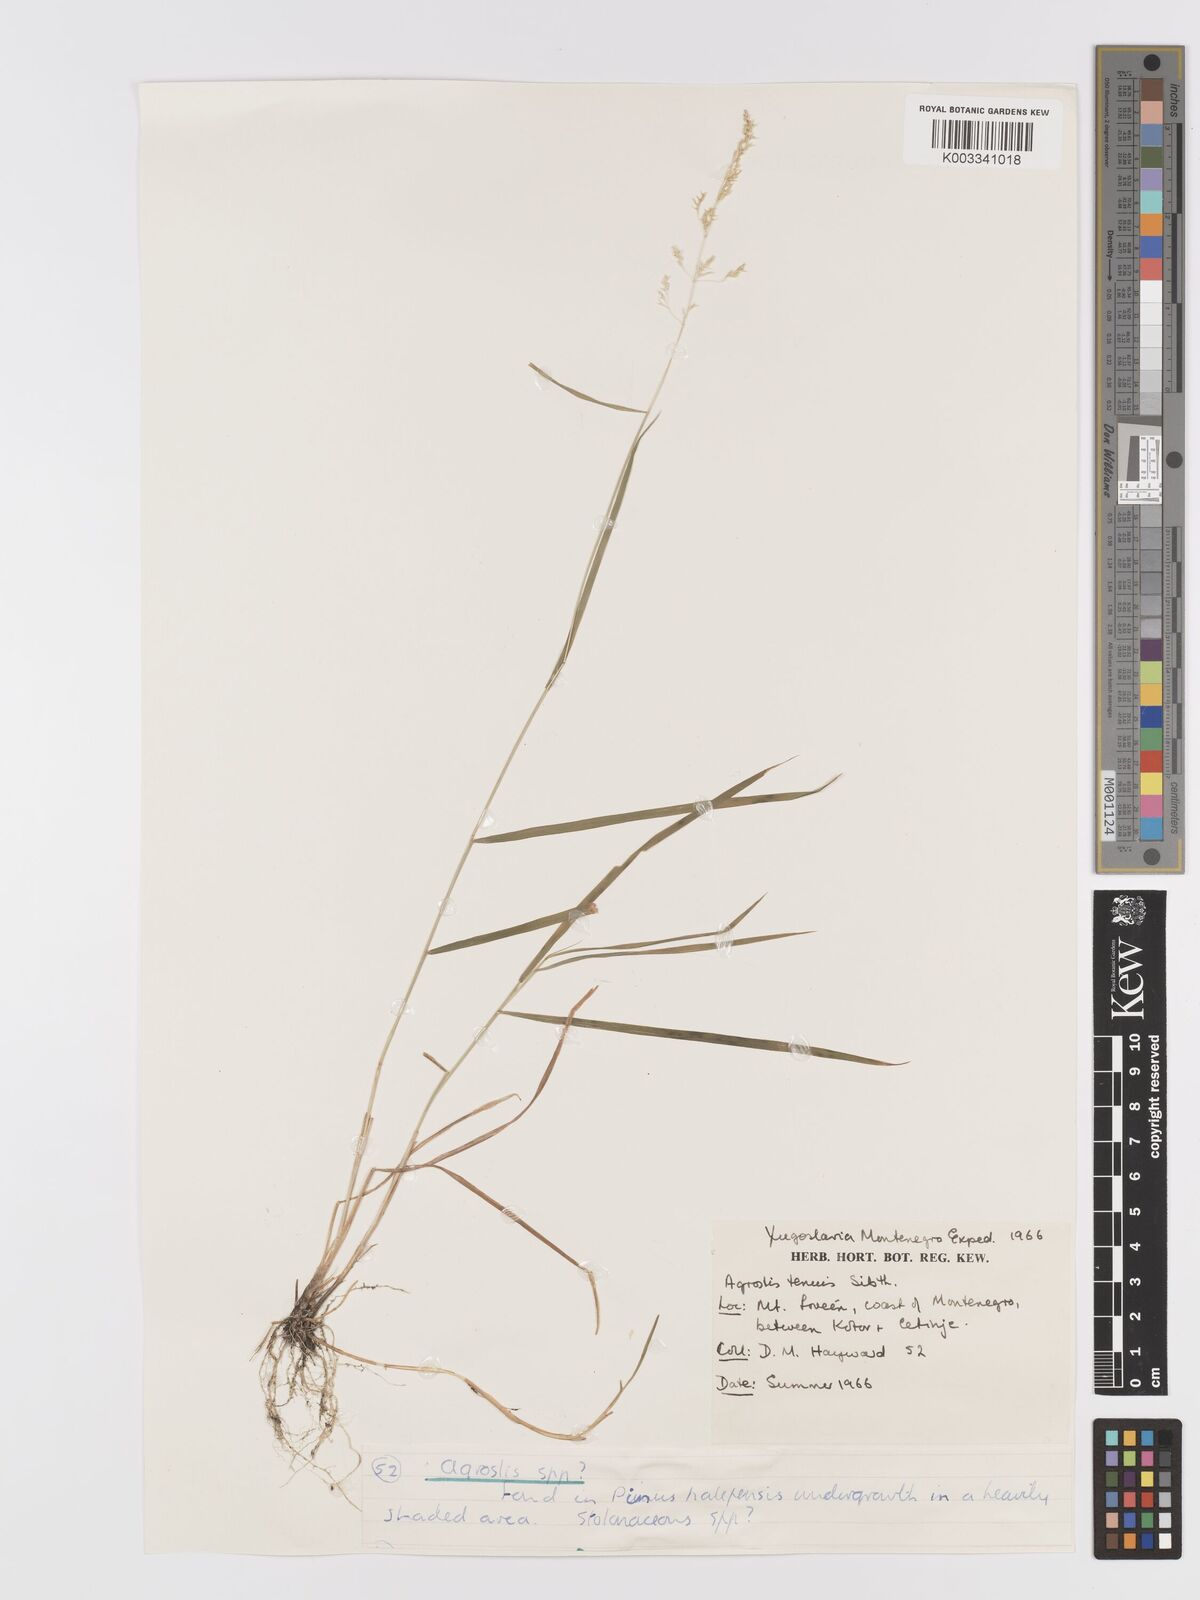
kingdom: Plantae
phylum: Tracheophyta
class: Liliopsida
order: Poales
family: Poaceae
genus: Agrostis
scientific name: Agrostis capillaris
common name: Colonial bentgrass
